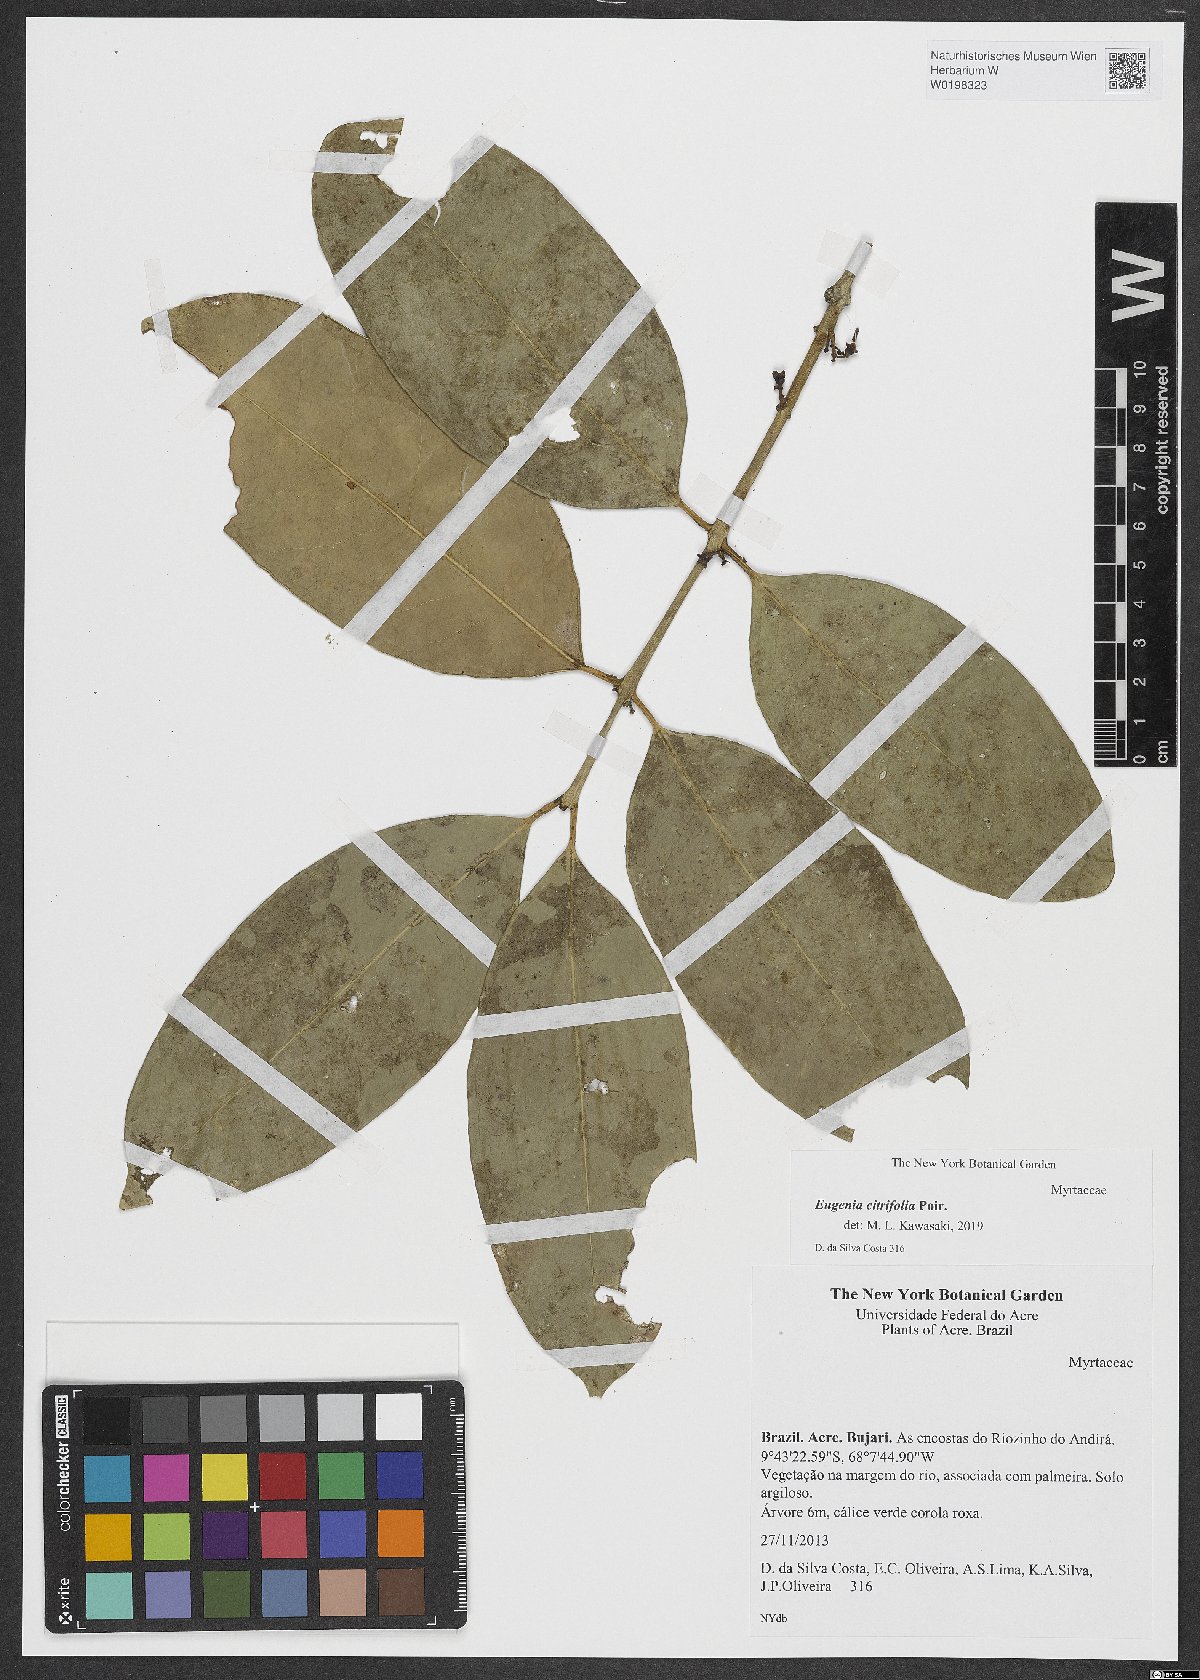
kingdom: Plantae
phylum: Tracheophyta
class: Magnoliopsida
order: Myrtales
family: Myrtaceae
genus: Eugenia
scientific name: Eugenia citrifolia
